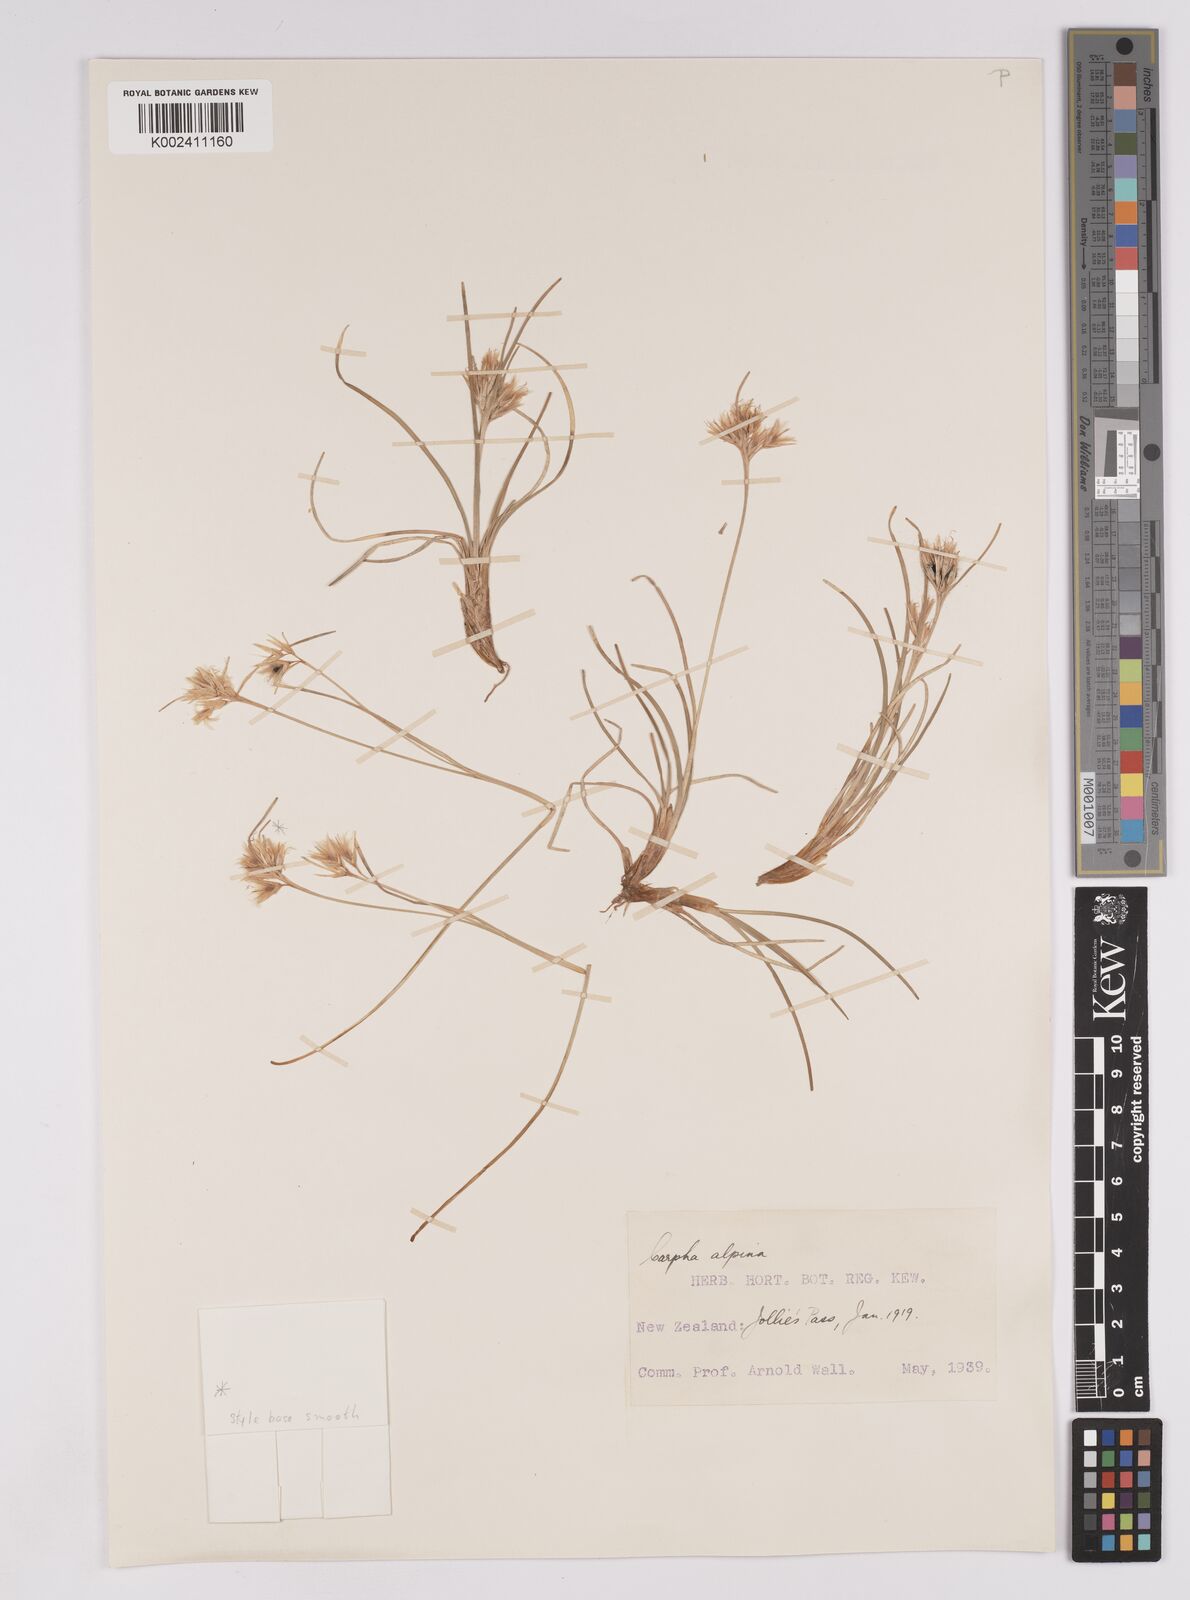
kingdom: Plantae
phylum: Tracheophyta
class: Liliopsida
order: Poales
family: Cyperaceae
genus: Carpha
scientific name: Carpha alpina
